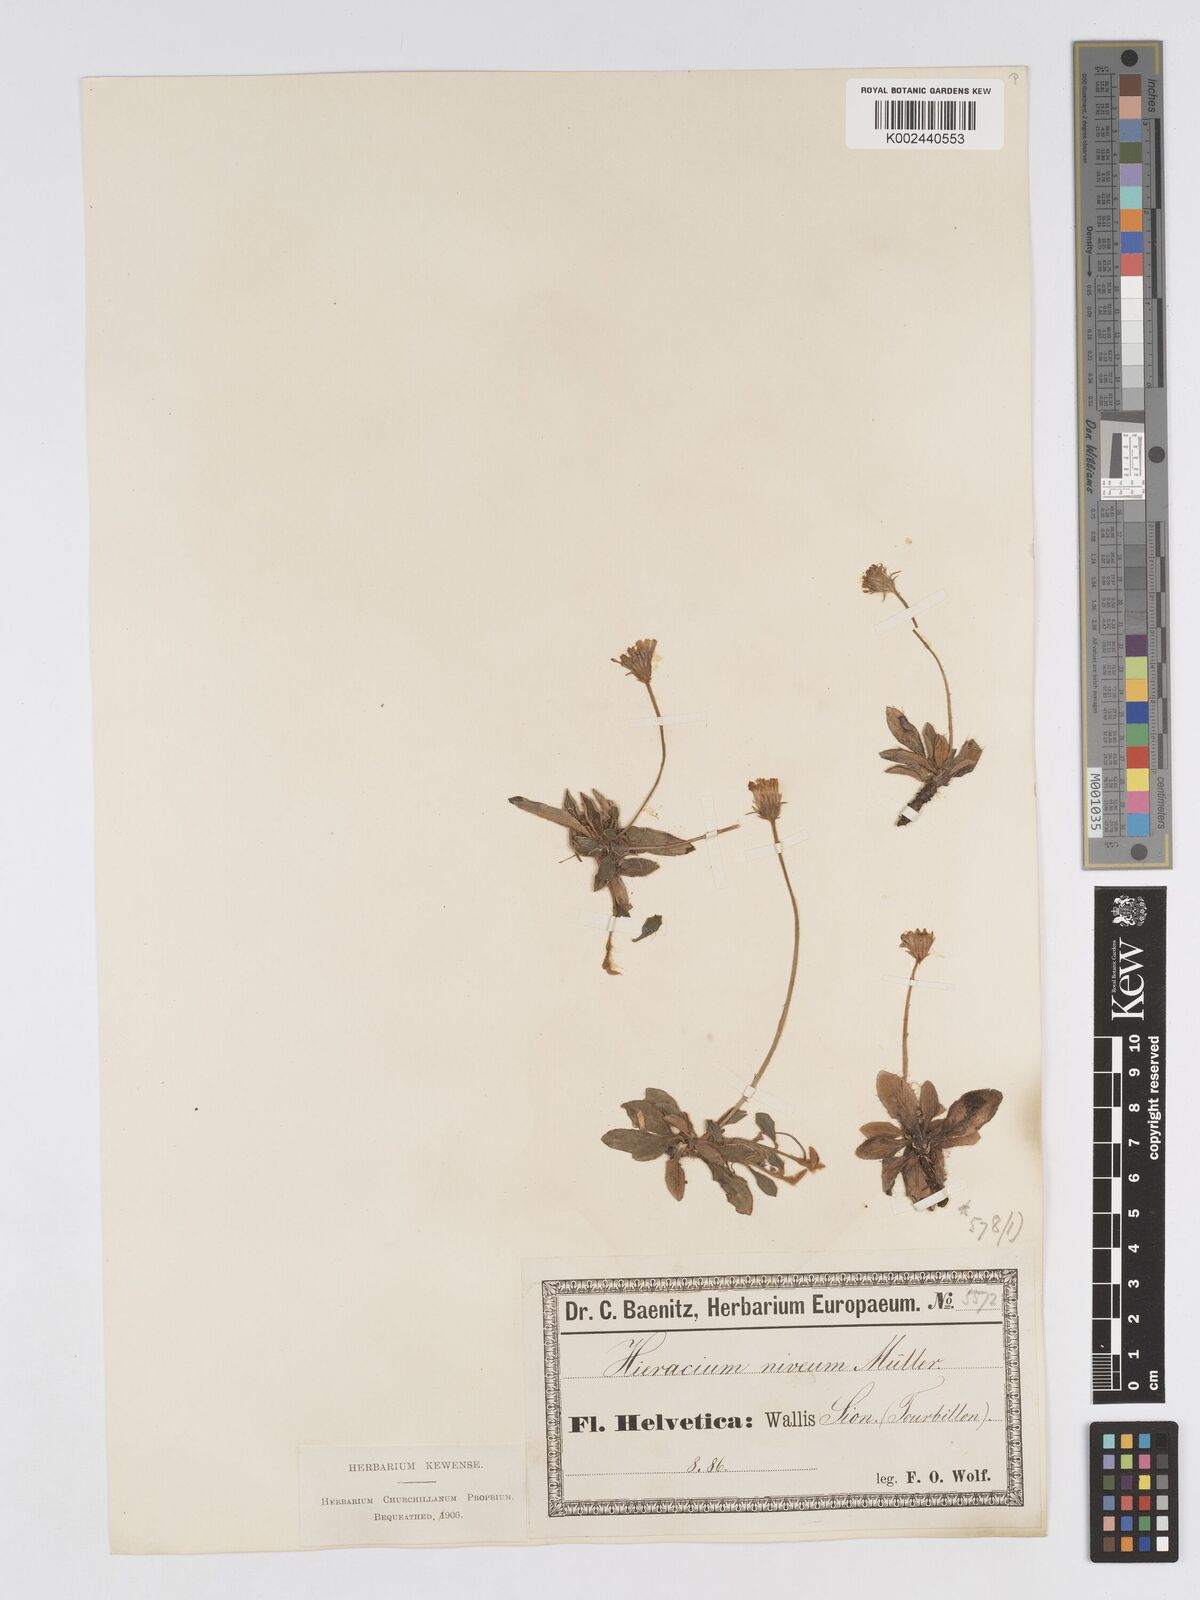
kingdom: Plantae
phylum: Tracheophyta
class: Magnoliopsida
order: Asterales
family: Asteraceae
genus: Pilosella
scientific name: Pilosella tardans
